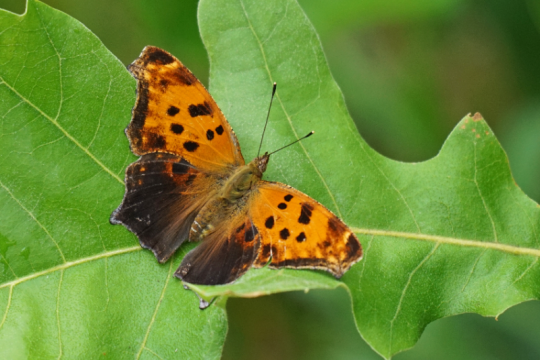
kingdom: Animalia
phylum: Arthropoda
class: Insecta
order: Lepidoptera
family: Nymphalidae
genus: Polygonia
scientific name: Polygonia comma
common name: Eastern Comma
